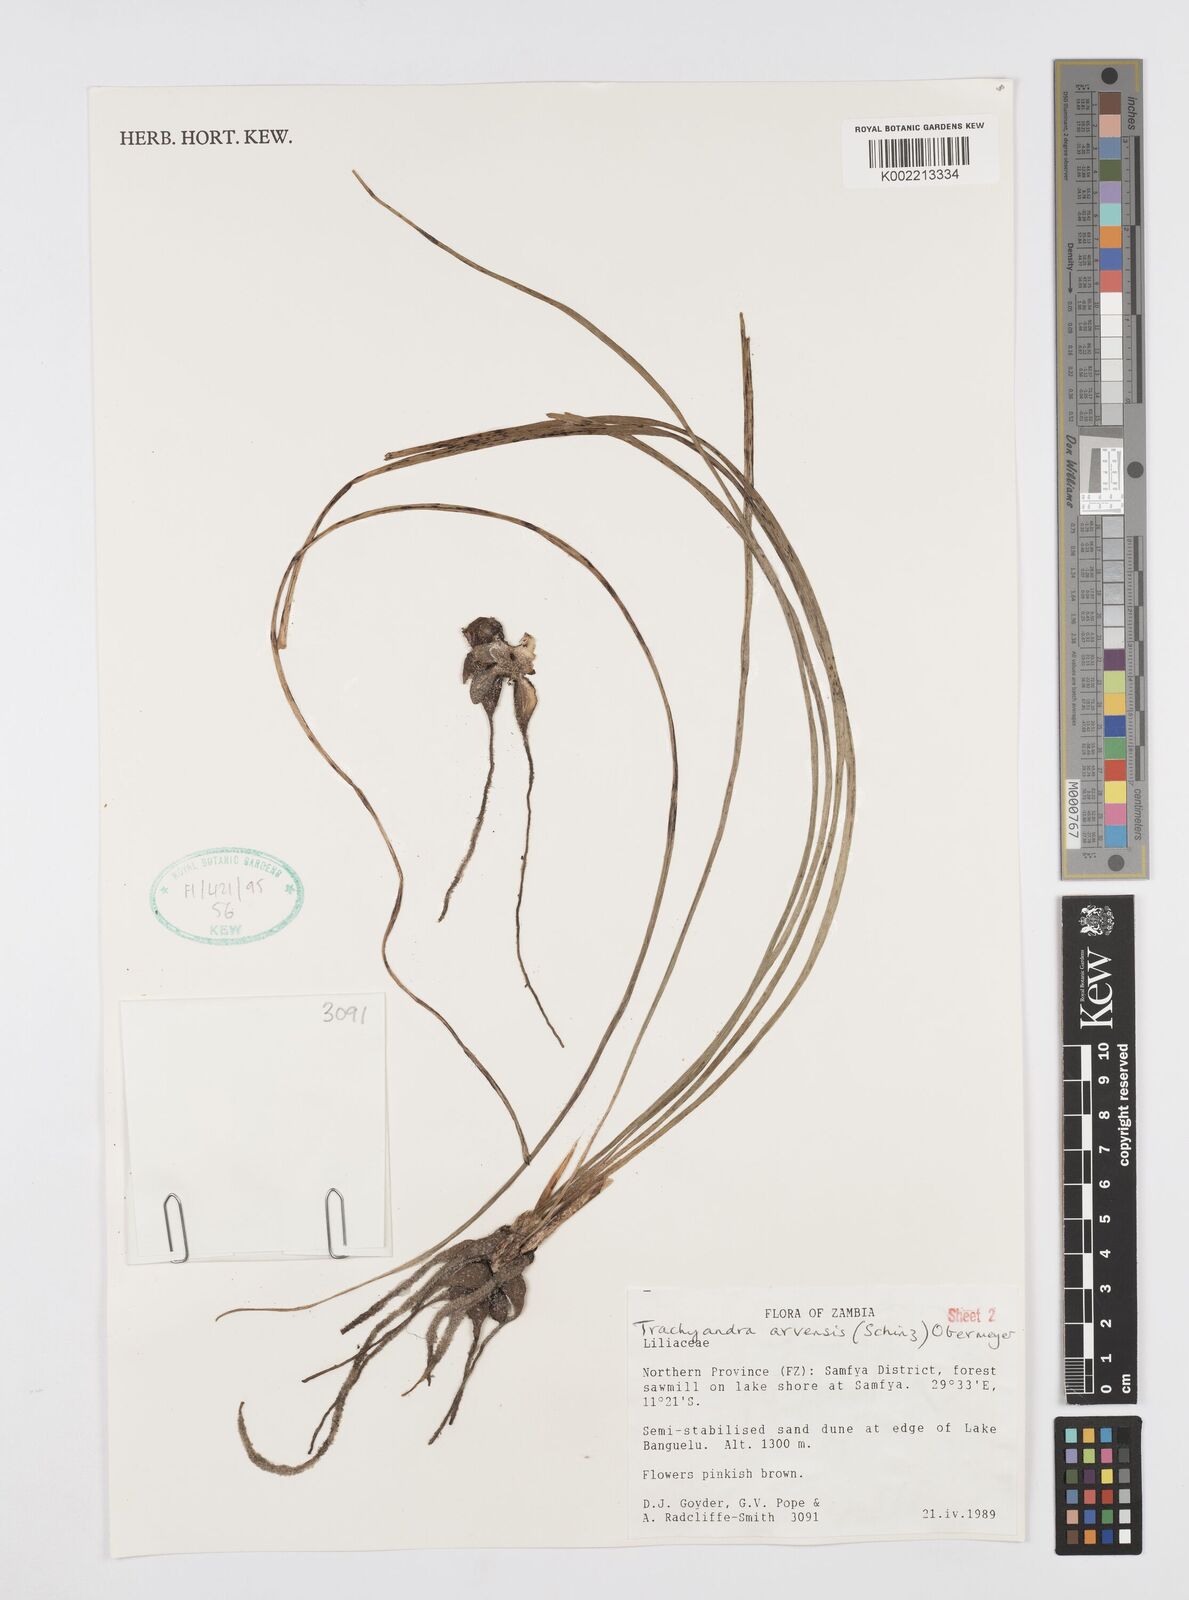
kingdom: Plantae
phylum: Tracheophyta
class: Liliopsida
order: Asparagales
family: Asphodelaceae
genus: Trachyandra
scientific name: Trachyandra arvensis
